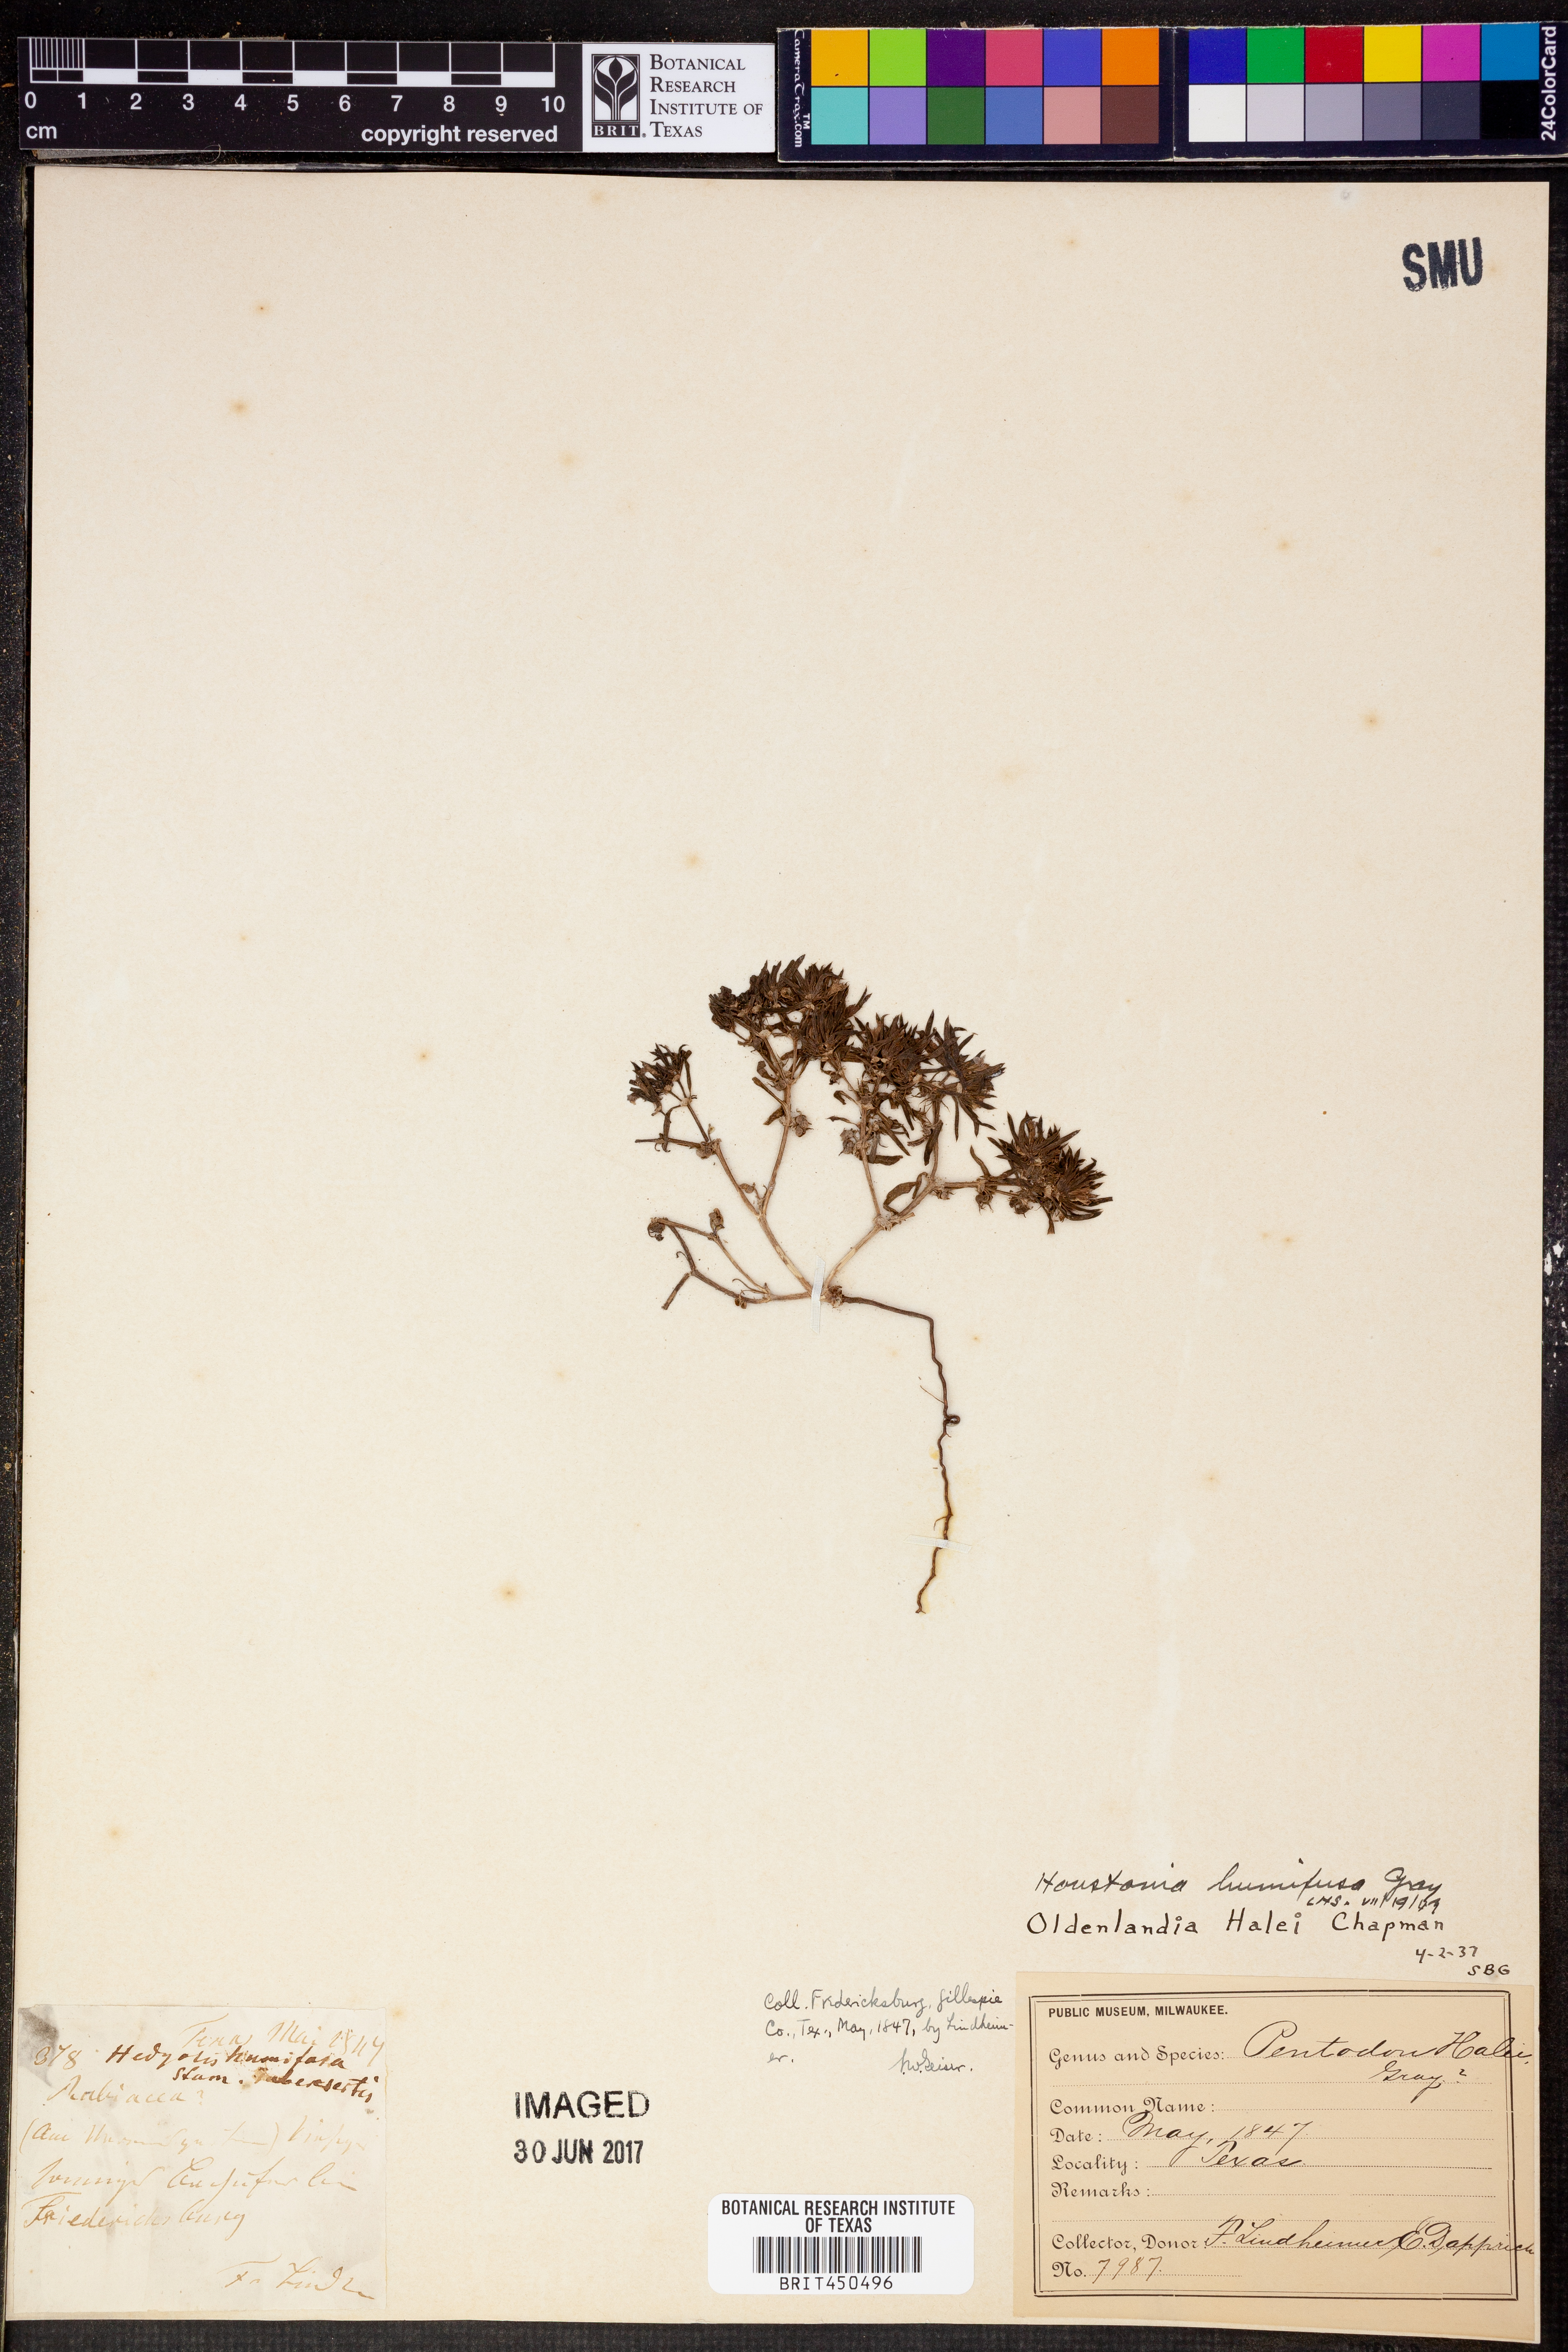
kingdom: Plantae
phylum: Tracheophyta
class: Magnoliopsida
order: Gentianales
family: Rubiaceae
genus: Houstonia
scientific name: Houstonia humifusa
